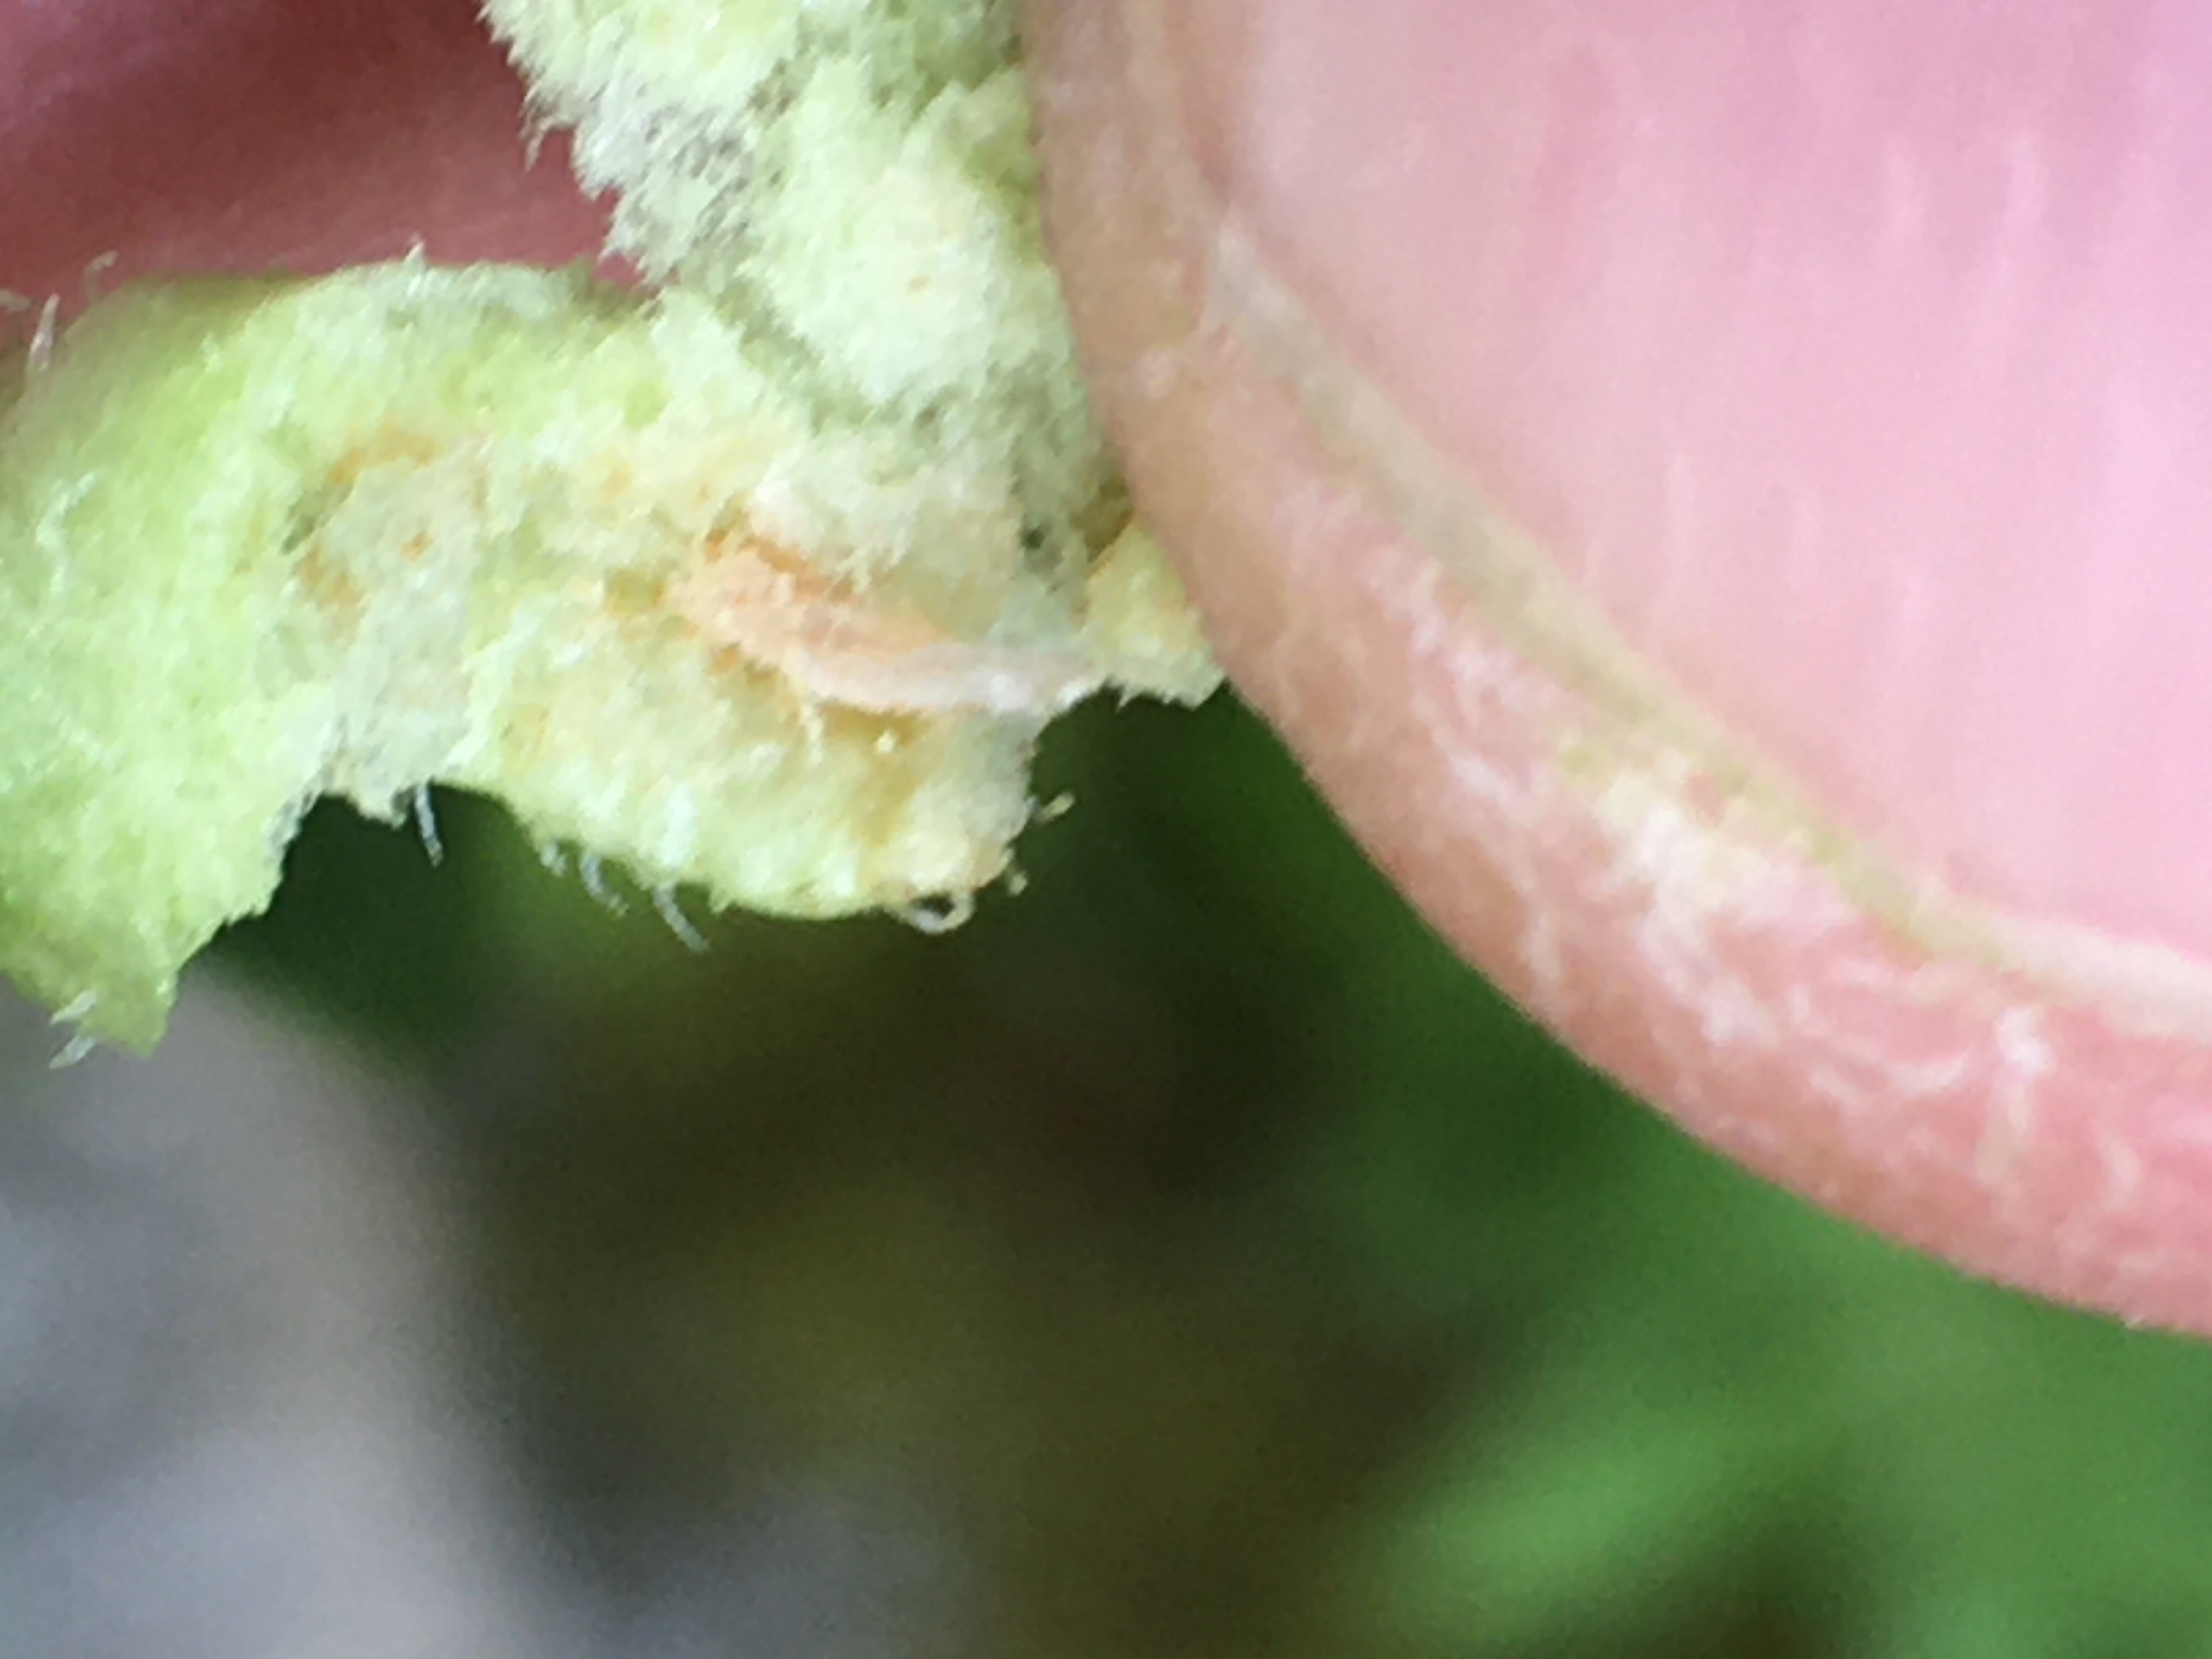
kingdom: Animalia
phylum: Arthropoda
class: Insecta
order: Diptera
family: Cecidomyiidae
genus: Wachtliella
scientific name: Wachtliella persicariae
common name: Pileurtgalmyg
